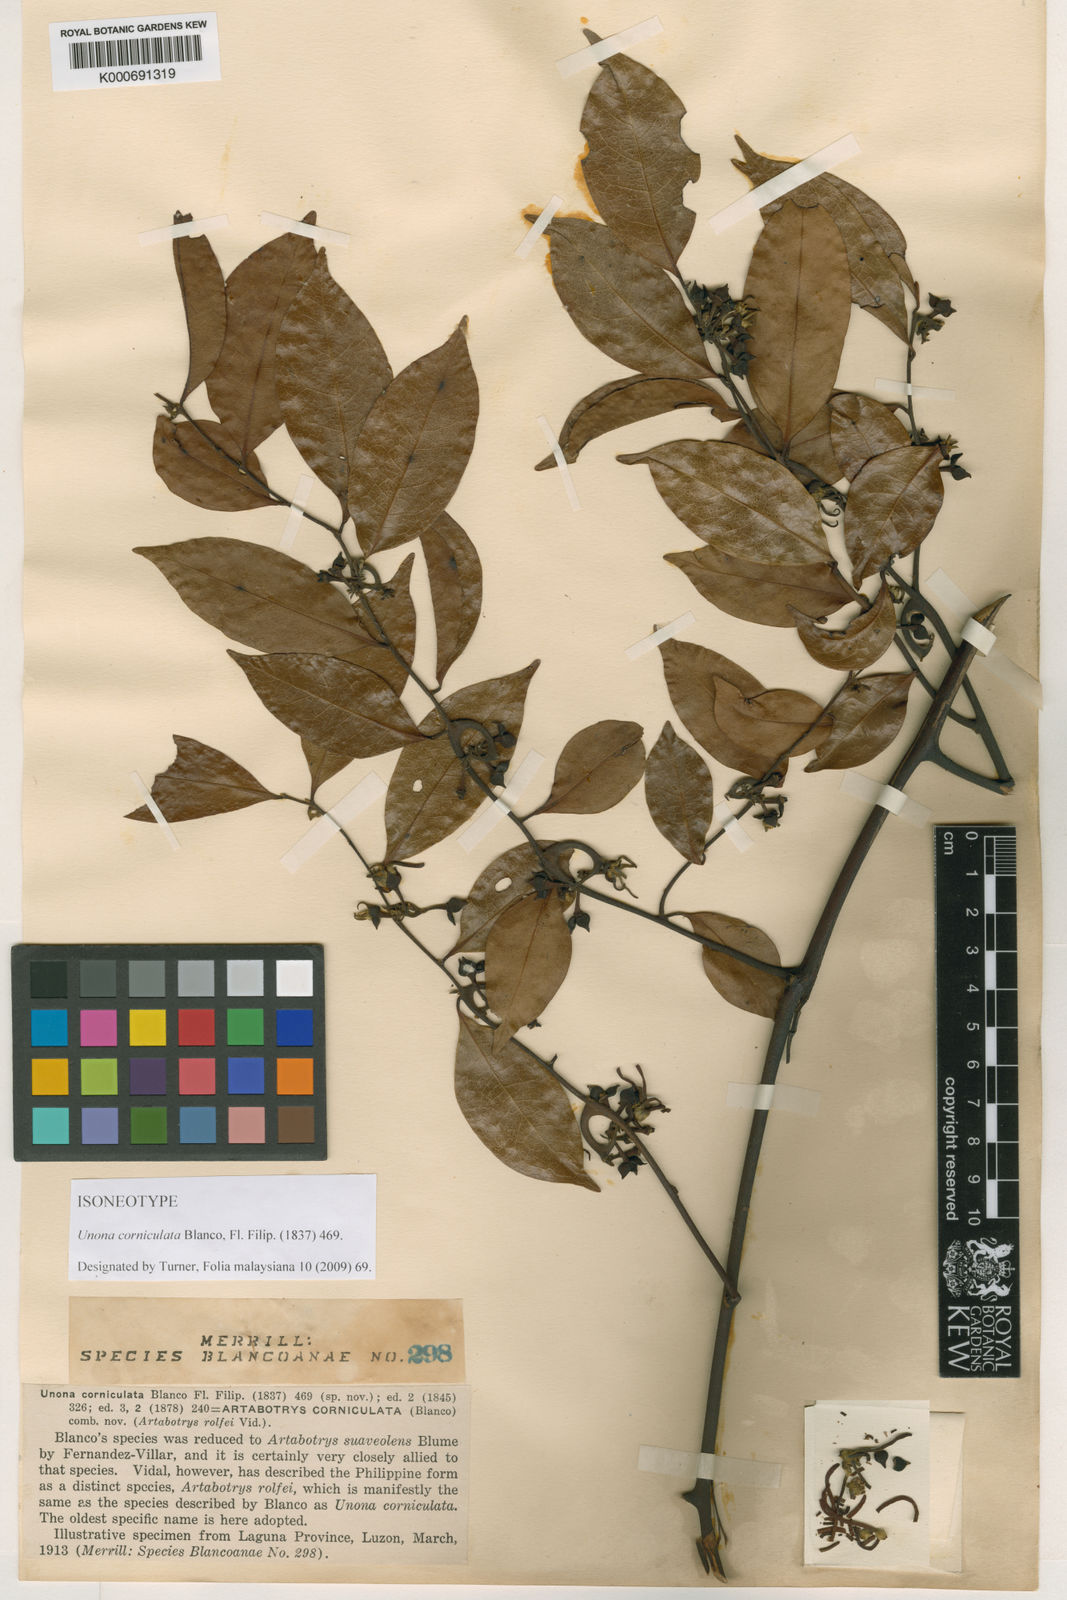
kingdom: Plantae
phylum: Tracheophyta
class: Magnoliopsida
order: Magnoliales
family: Annonaceae
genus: Artabotrys
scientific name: Artabotrys suaveolens
